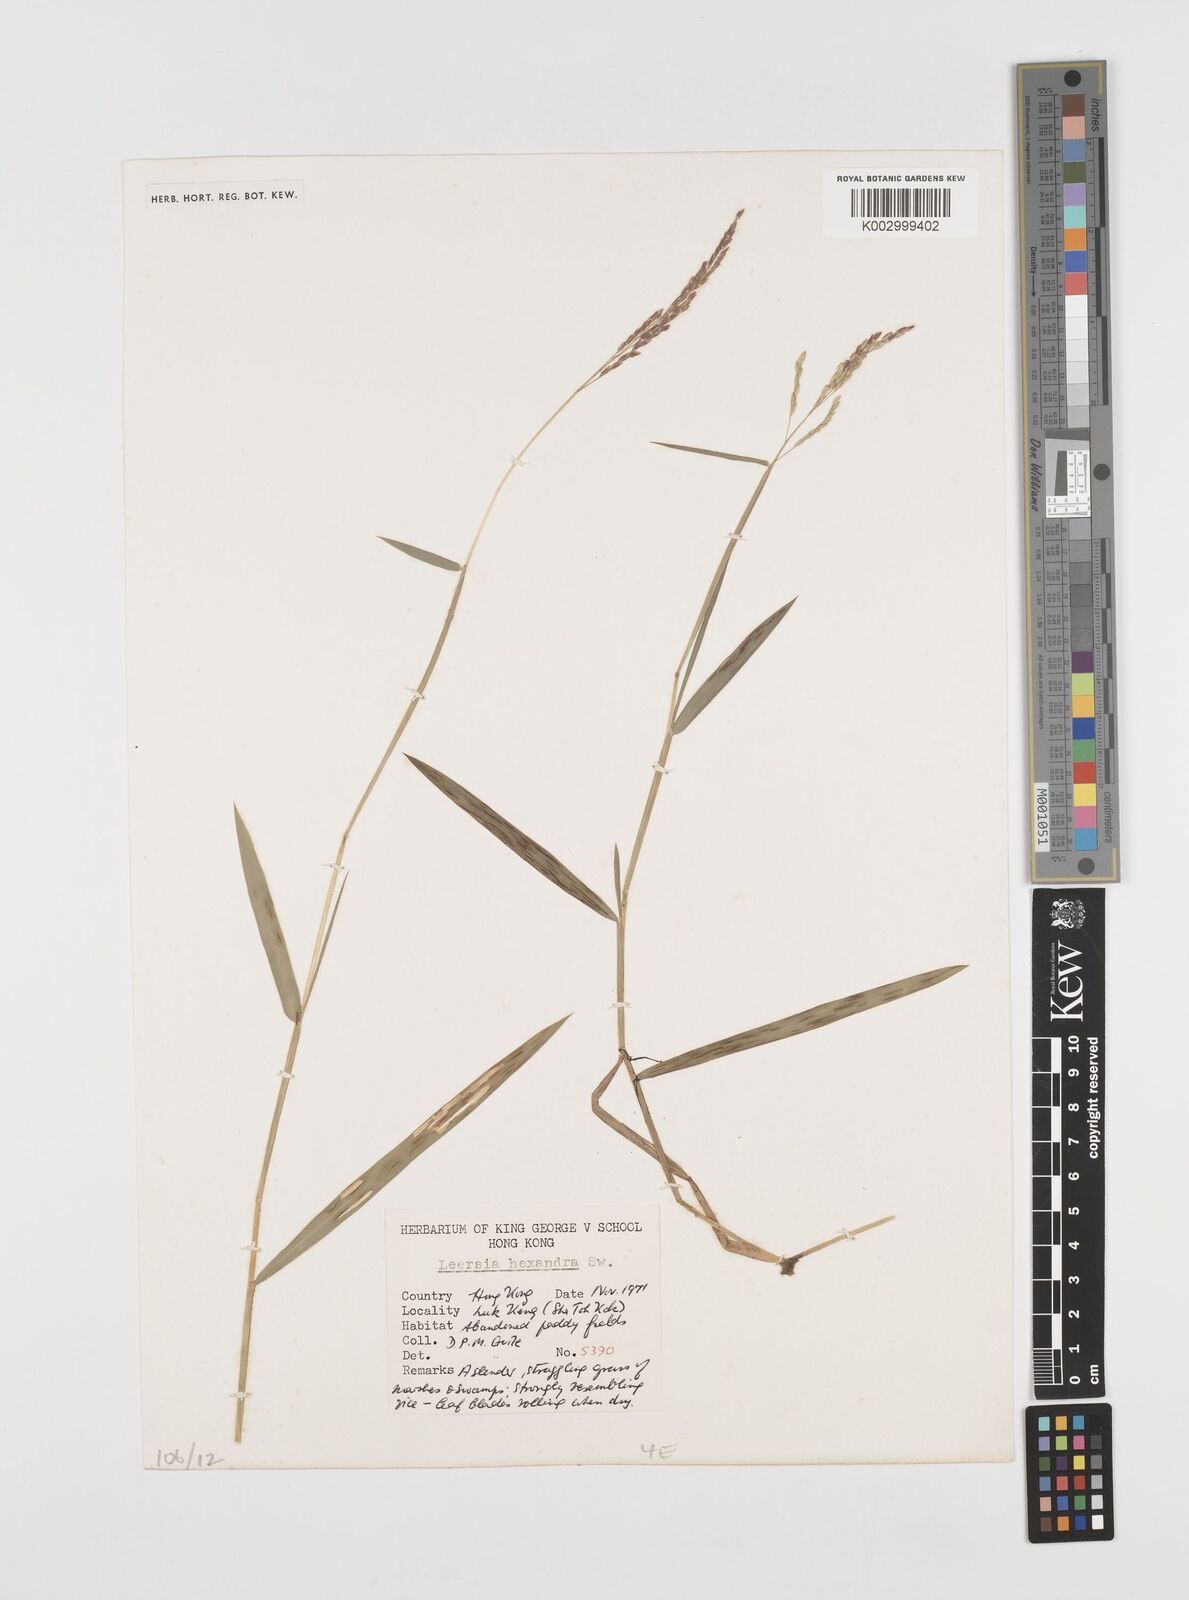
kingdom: Plantae
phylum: Tracheophyta
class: Liliopsida
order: Poales
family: Poaceae
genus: Leersia
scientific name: Leersia hexandra
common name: Southern cut grass
